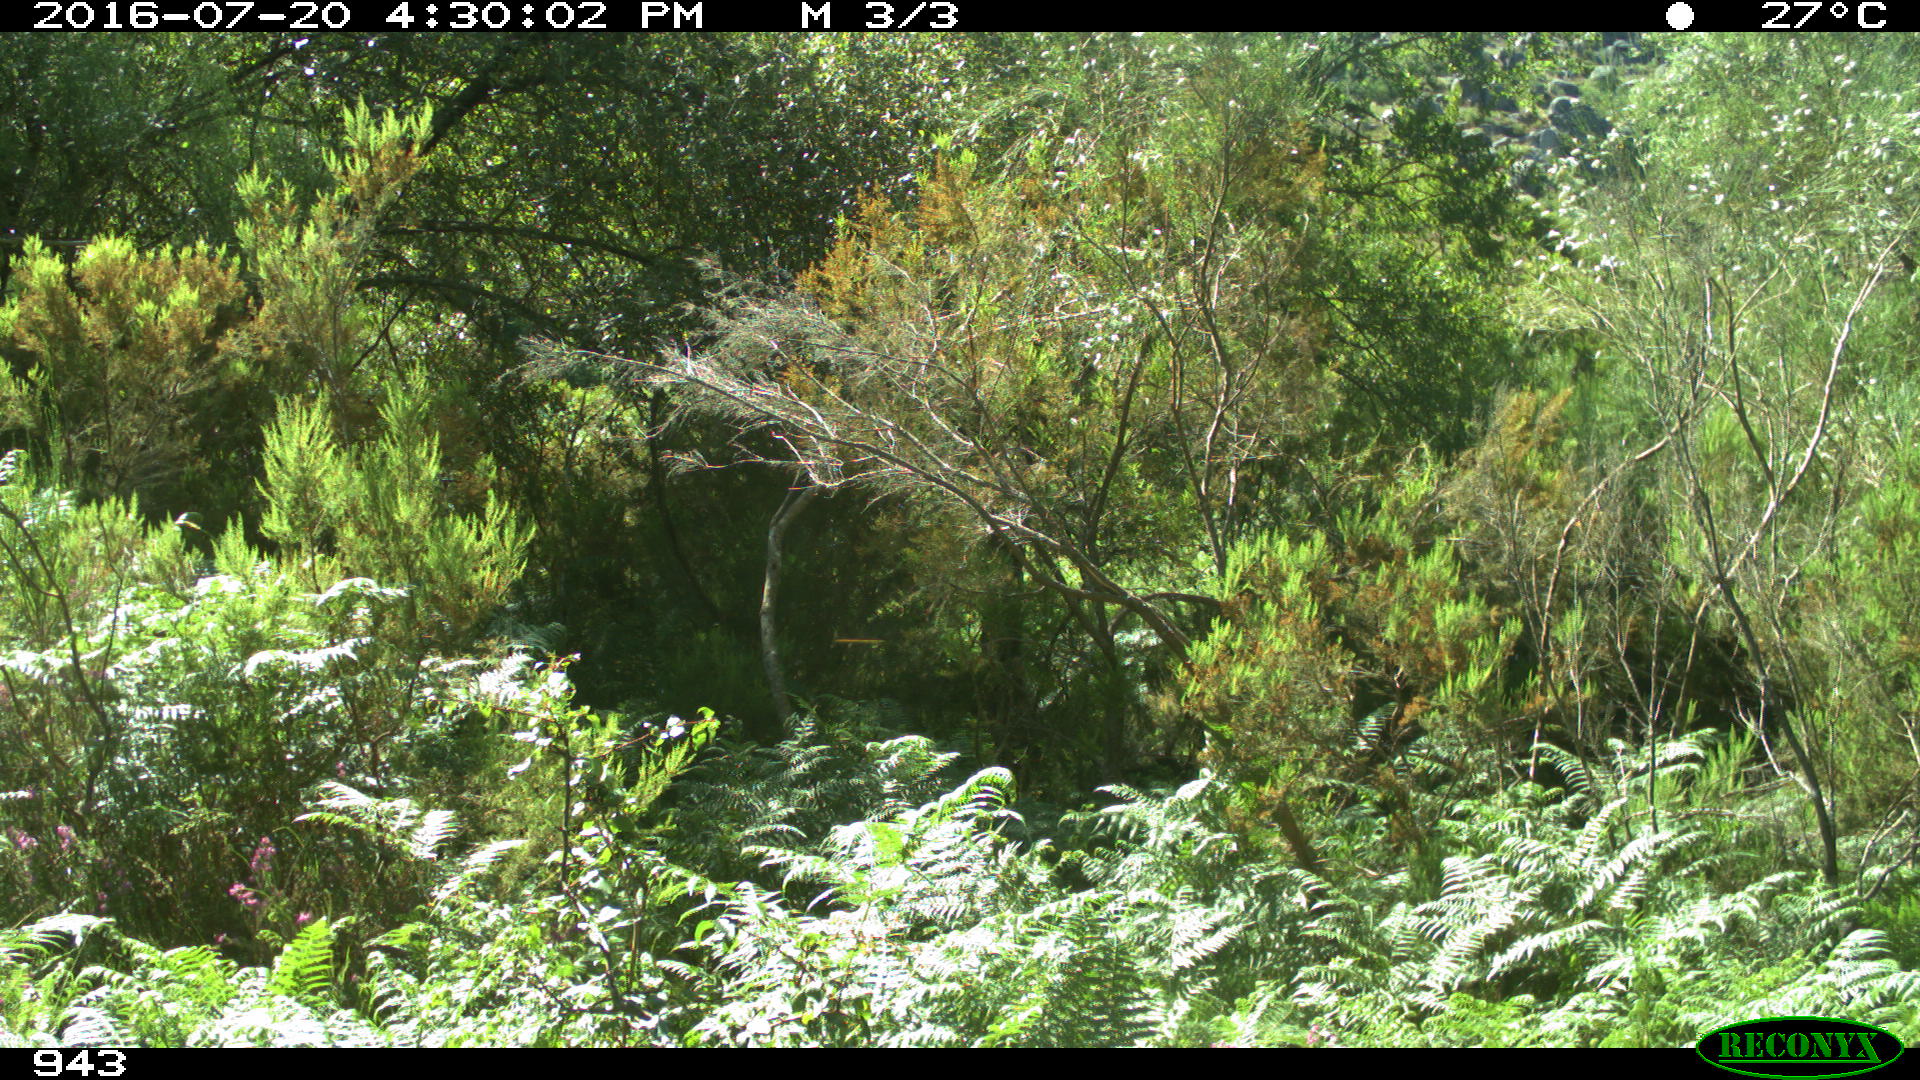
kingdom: Animalia
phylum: Chordata
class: Mammalia
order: Artiodactyla
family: Bovidae
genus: Bos
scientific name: Bos taurus
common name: Domesticated cattle
